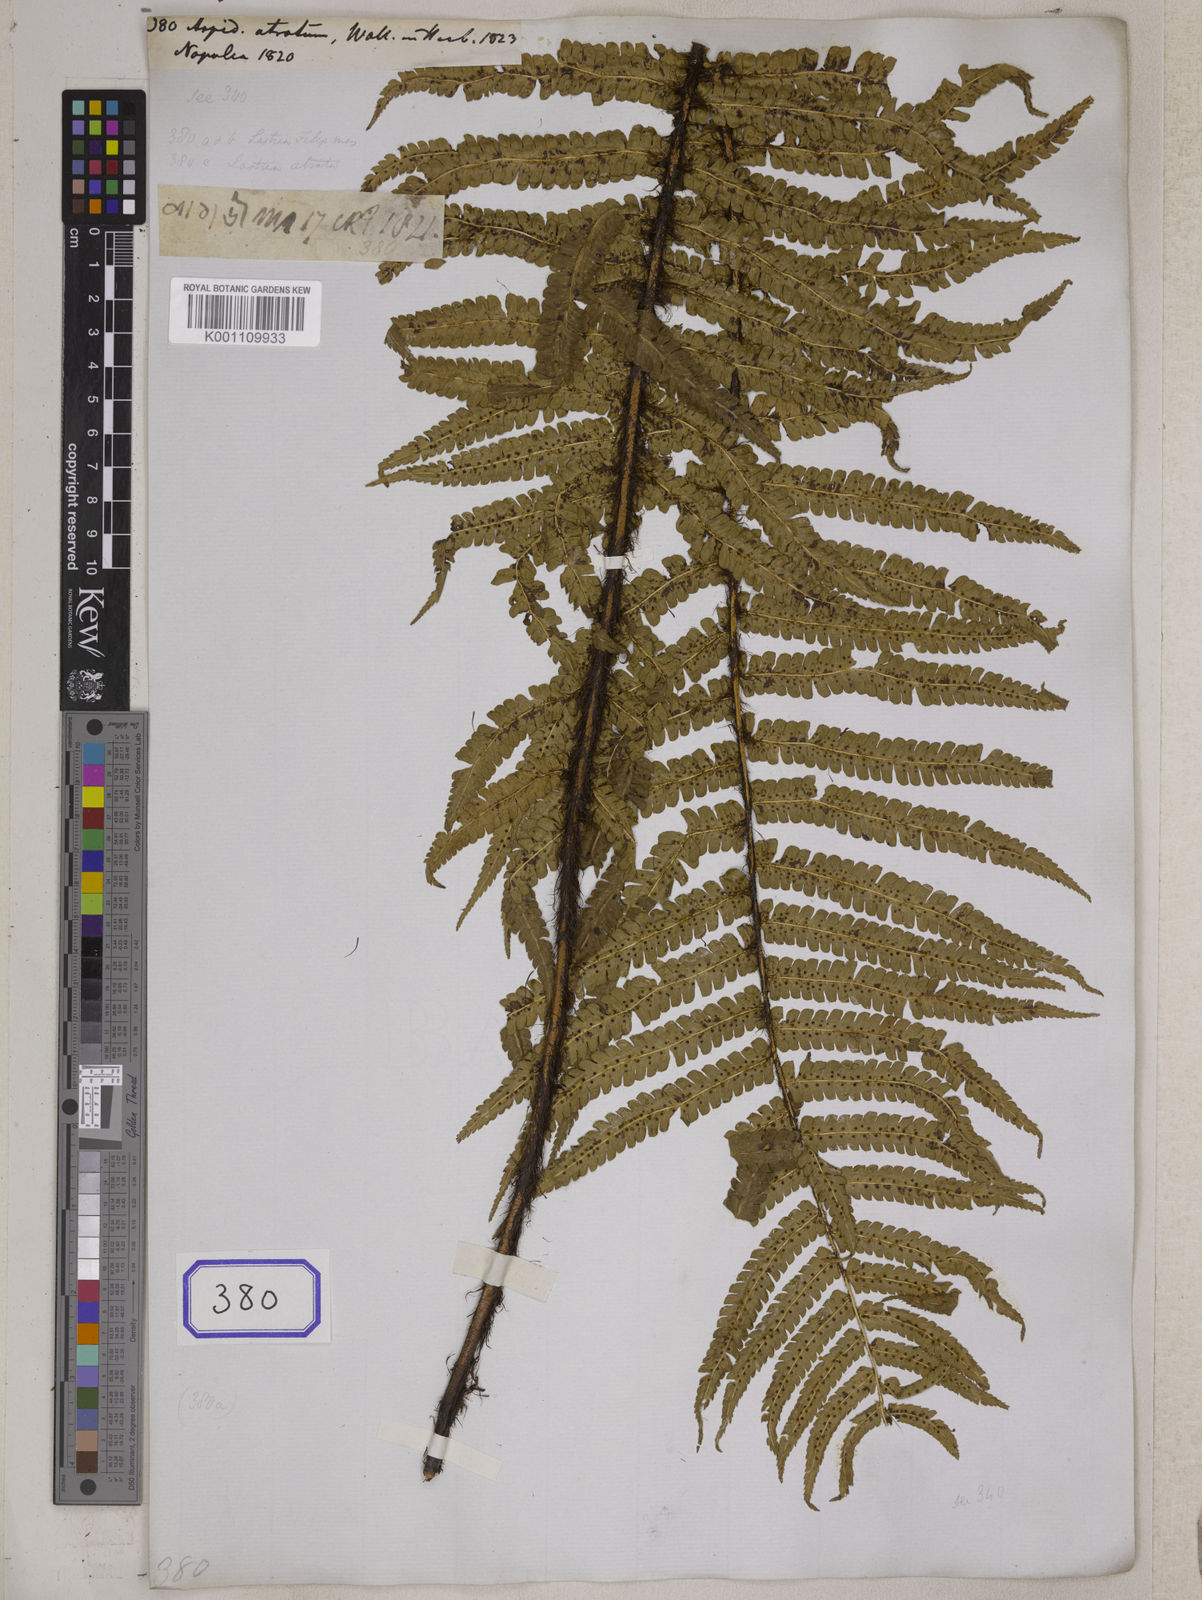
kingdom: Plantae
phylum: Tracheophyta
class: Polypodiopsida
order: Polypodiales
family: Tectariaceae
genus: Tectaria
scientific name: Tectaria Aspidium spec
